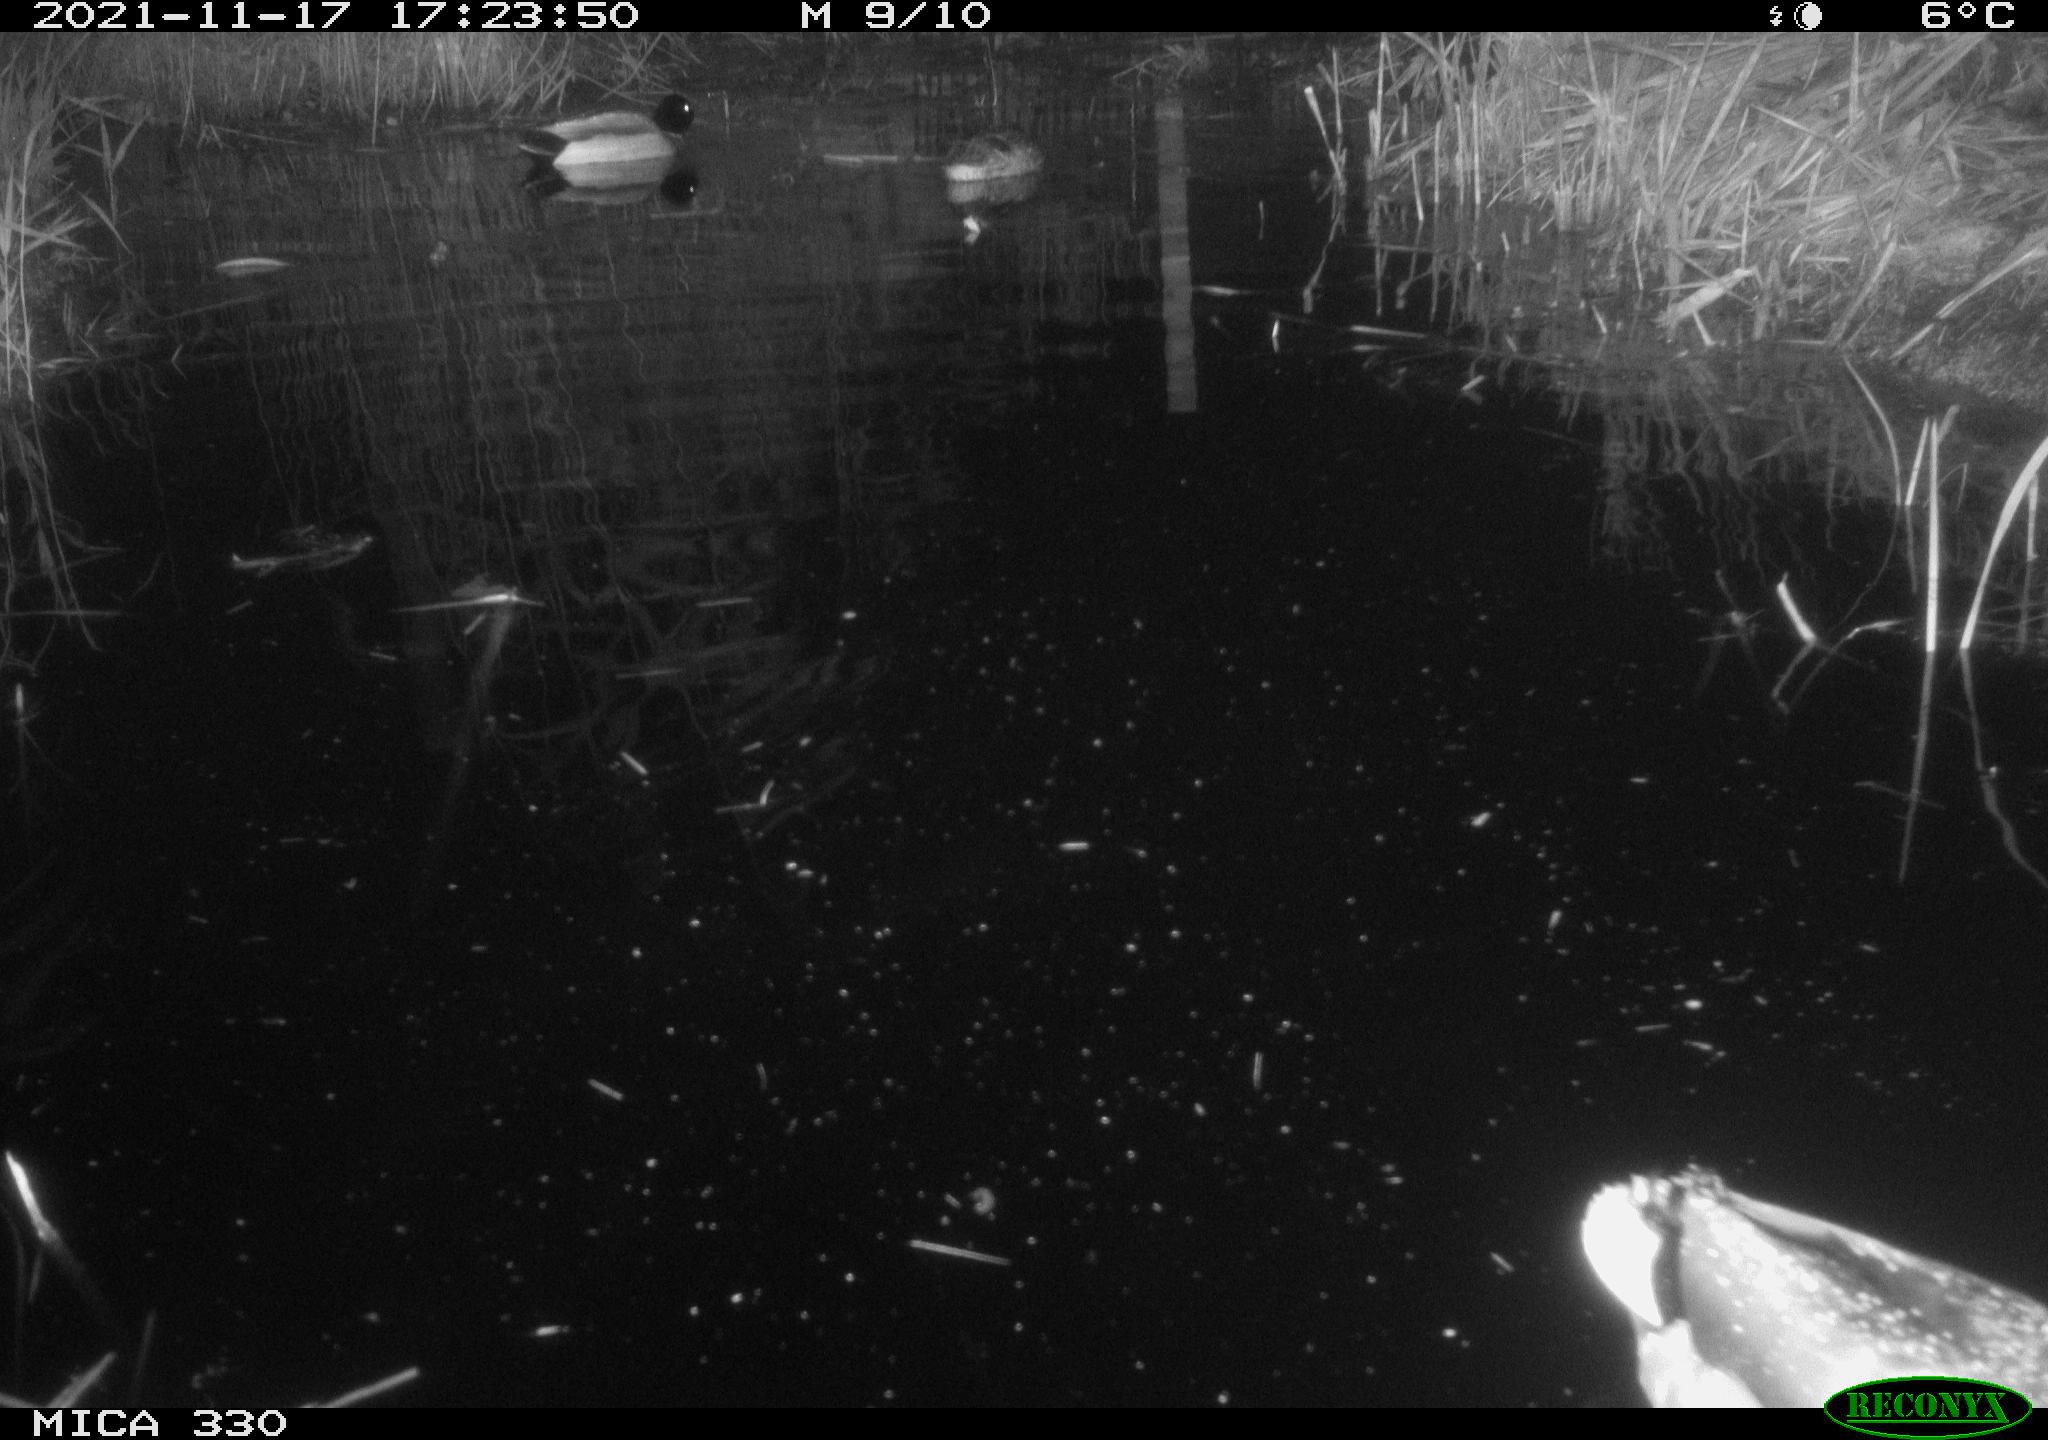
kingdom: Animalia
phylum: Chordata
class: Aves
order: Anseriformes
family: Anatidae
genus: Anas
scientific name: Anas platyrhynchos
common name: Mallard
